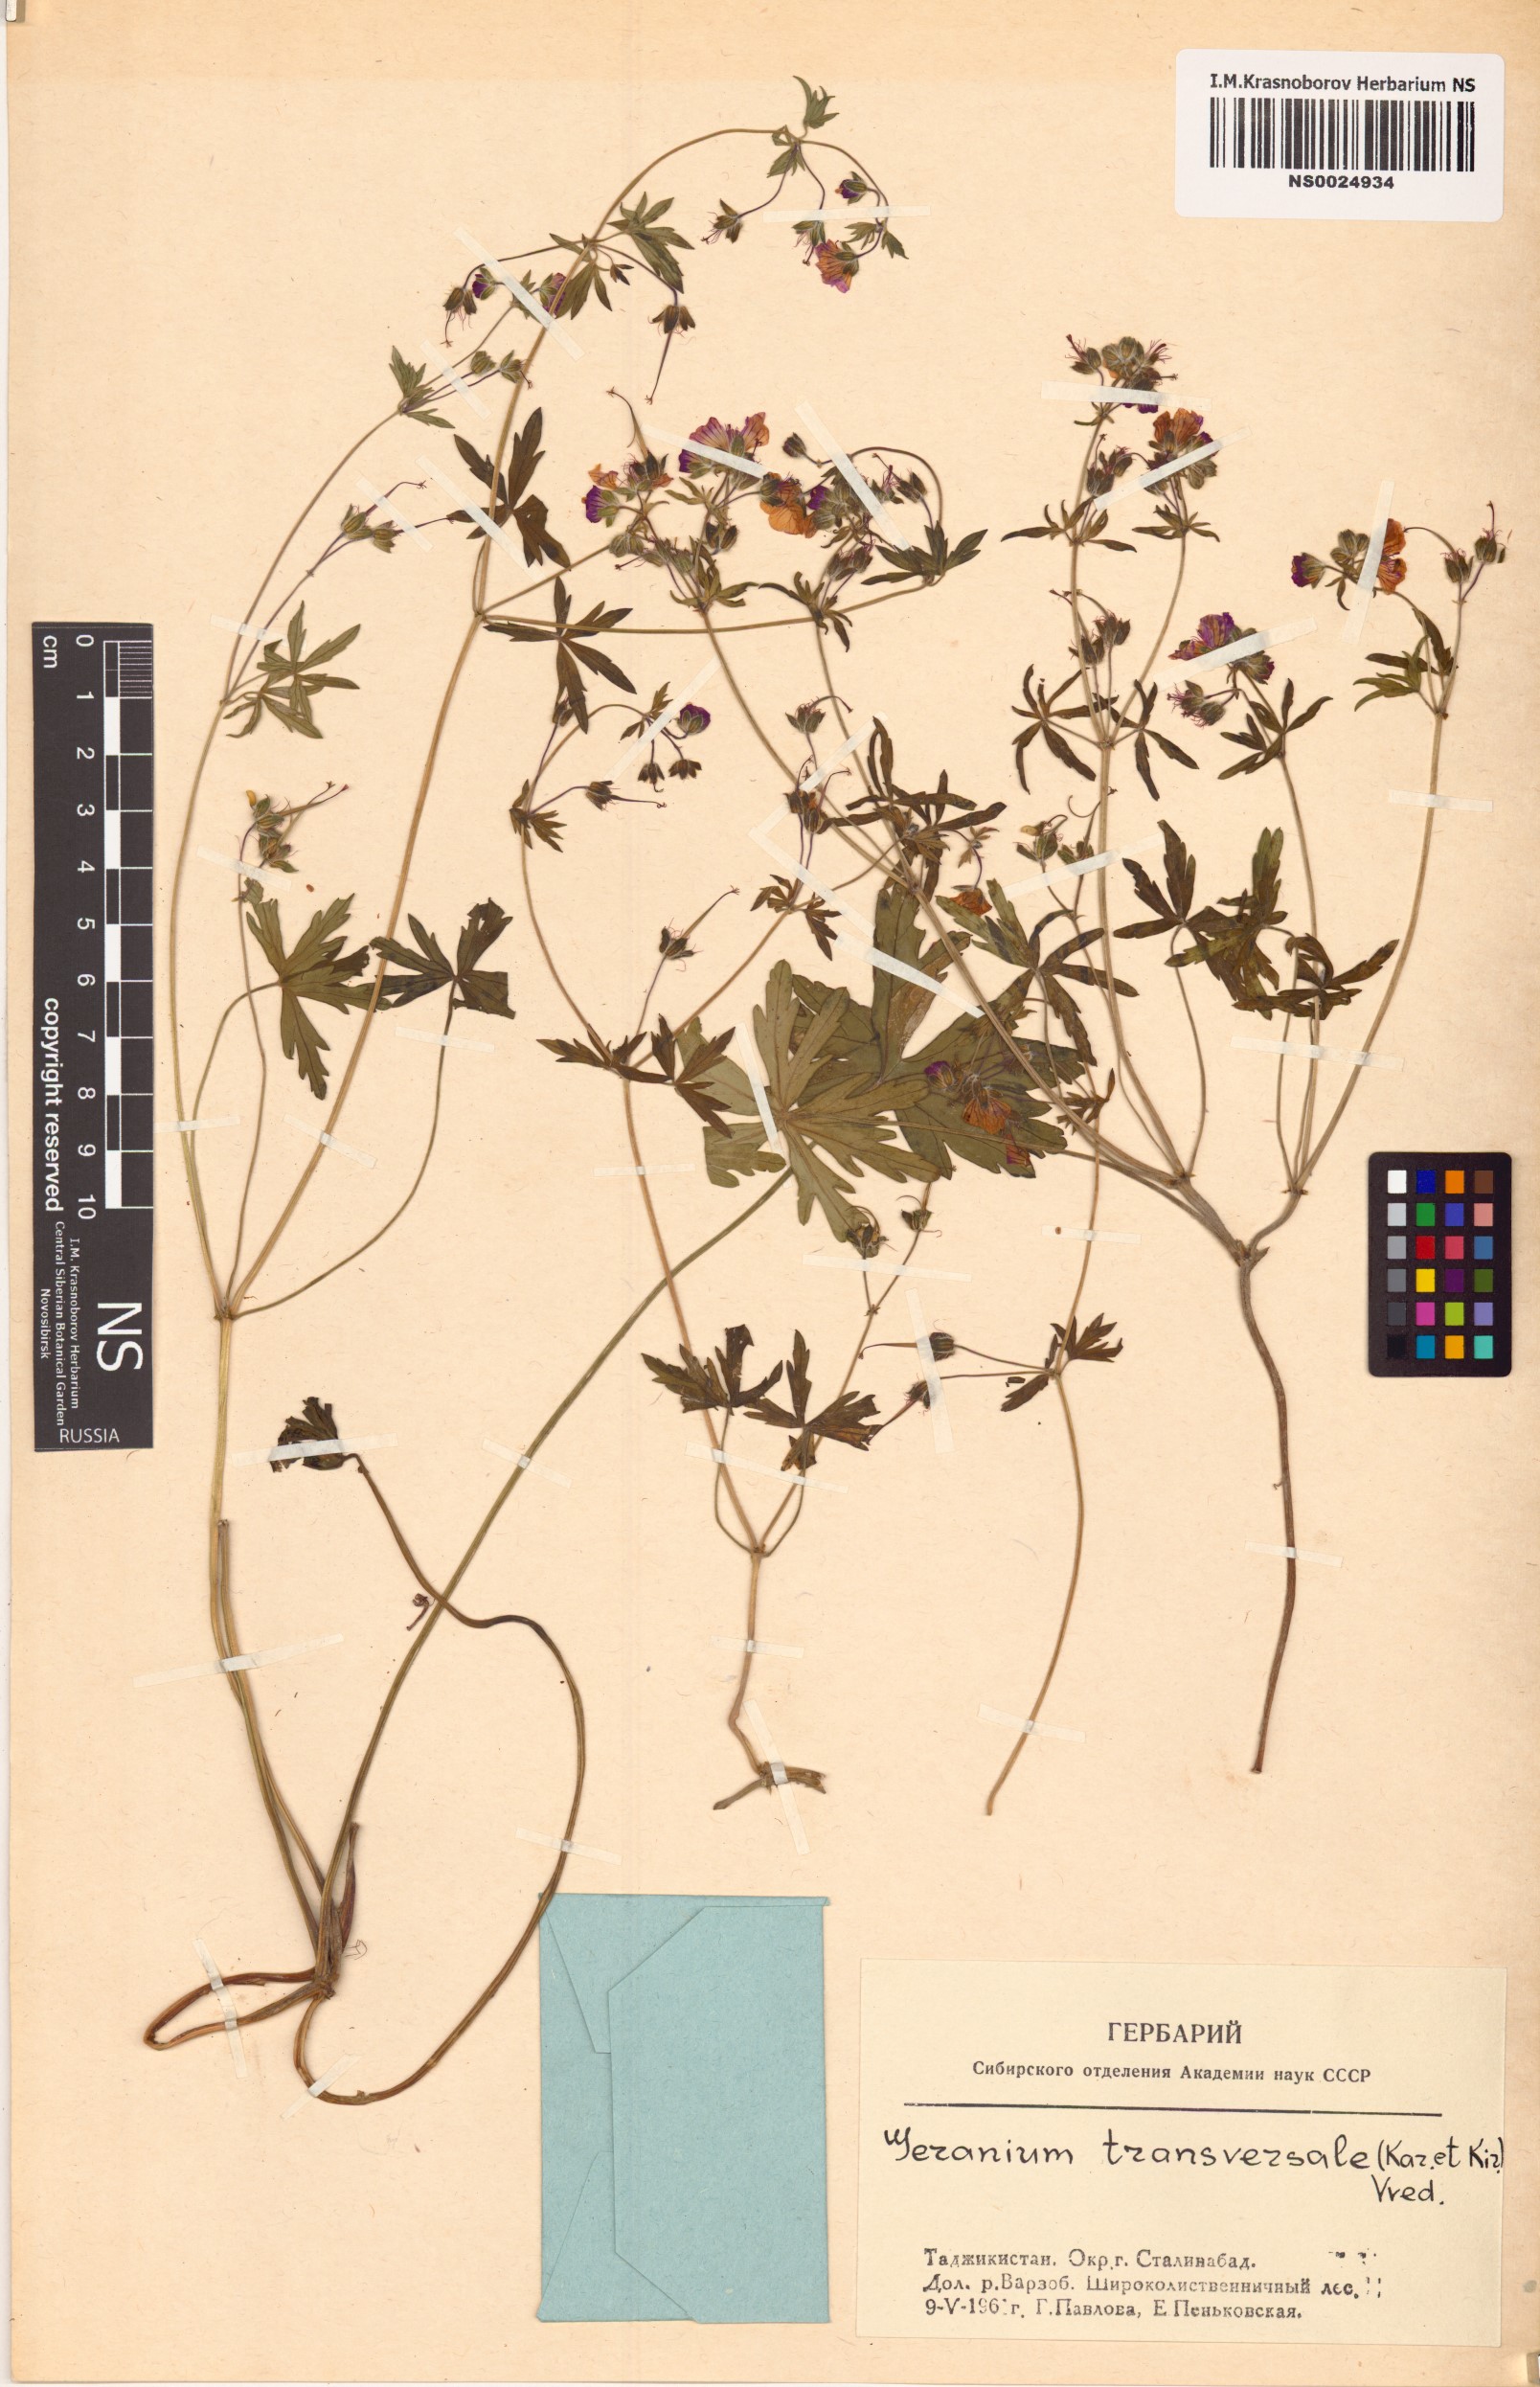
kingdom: Plantae
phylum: Tracheophyta
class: Magnoliopsida
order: Geraniales
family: Geraniaceae
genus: Geranium
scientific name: Geranium linearilobum
